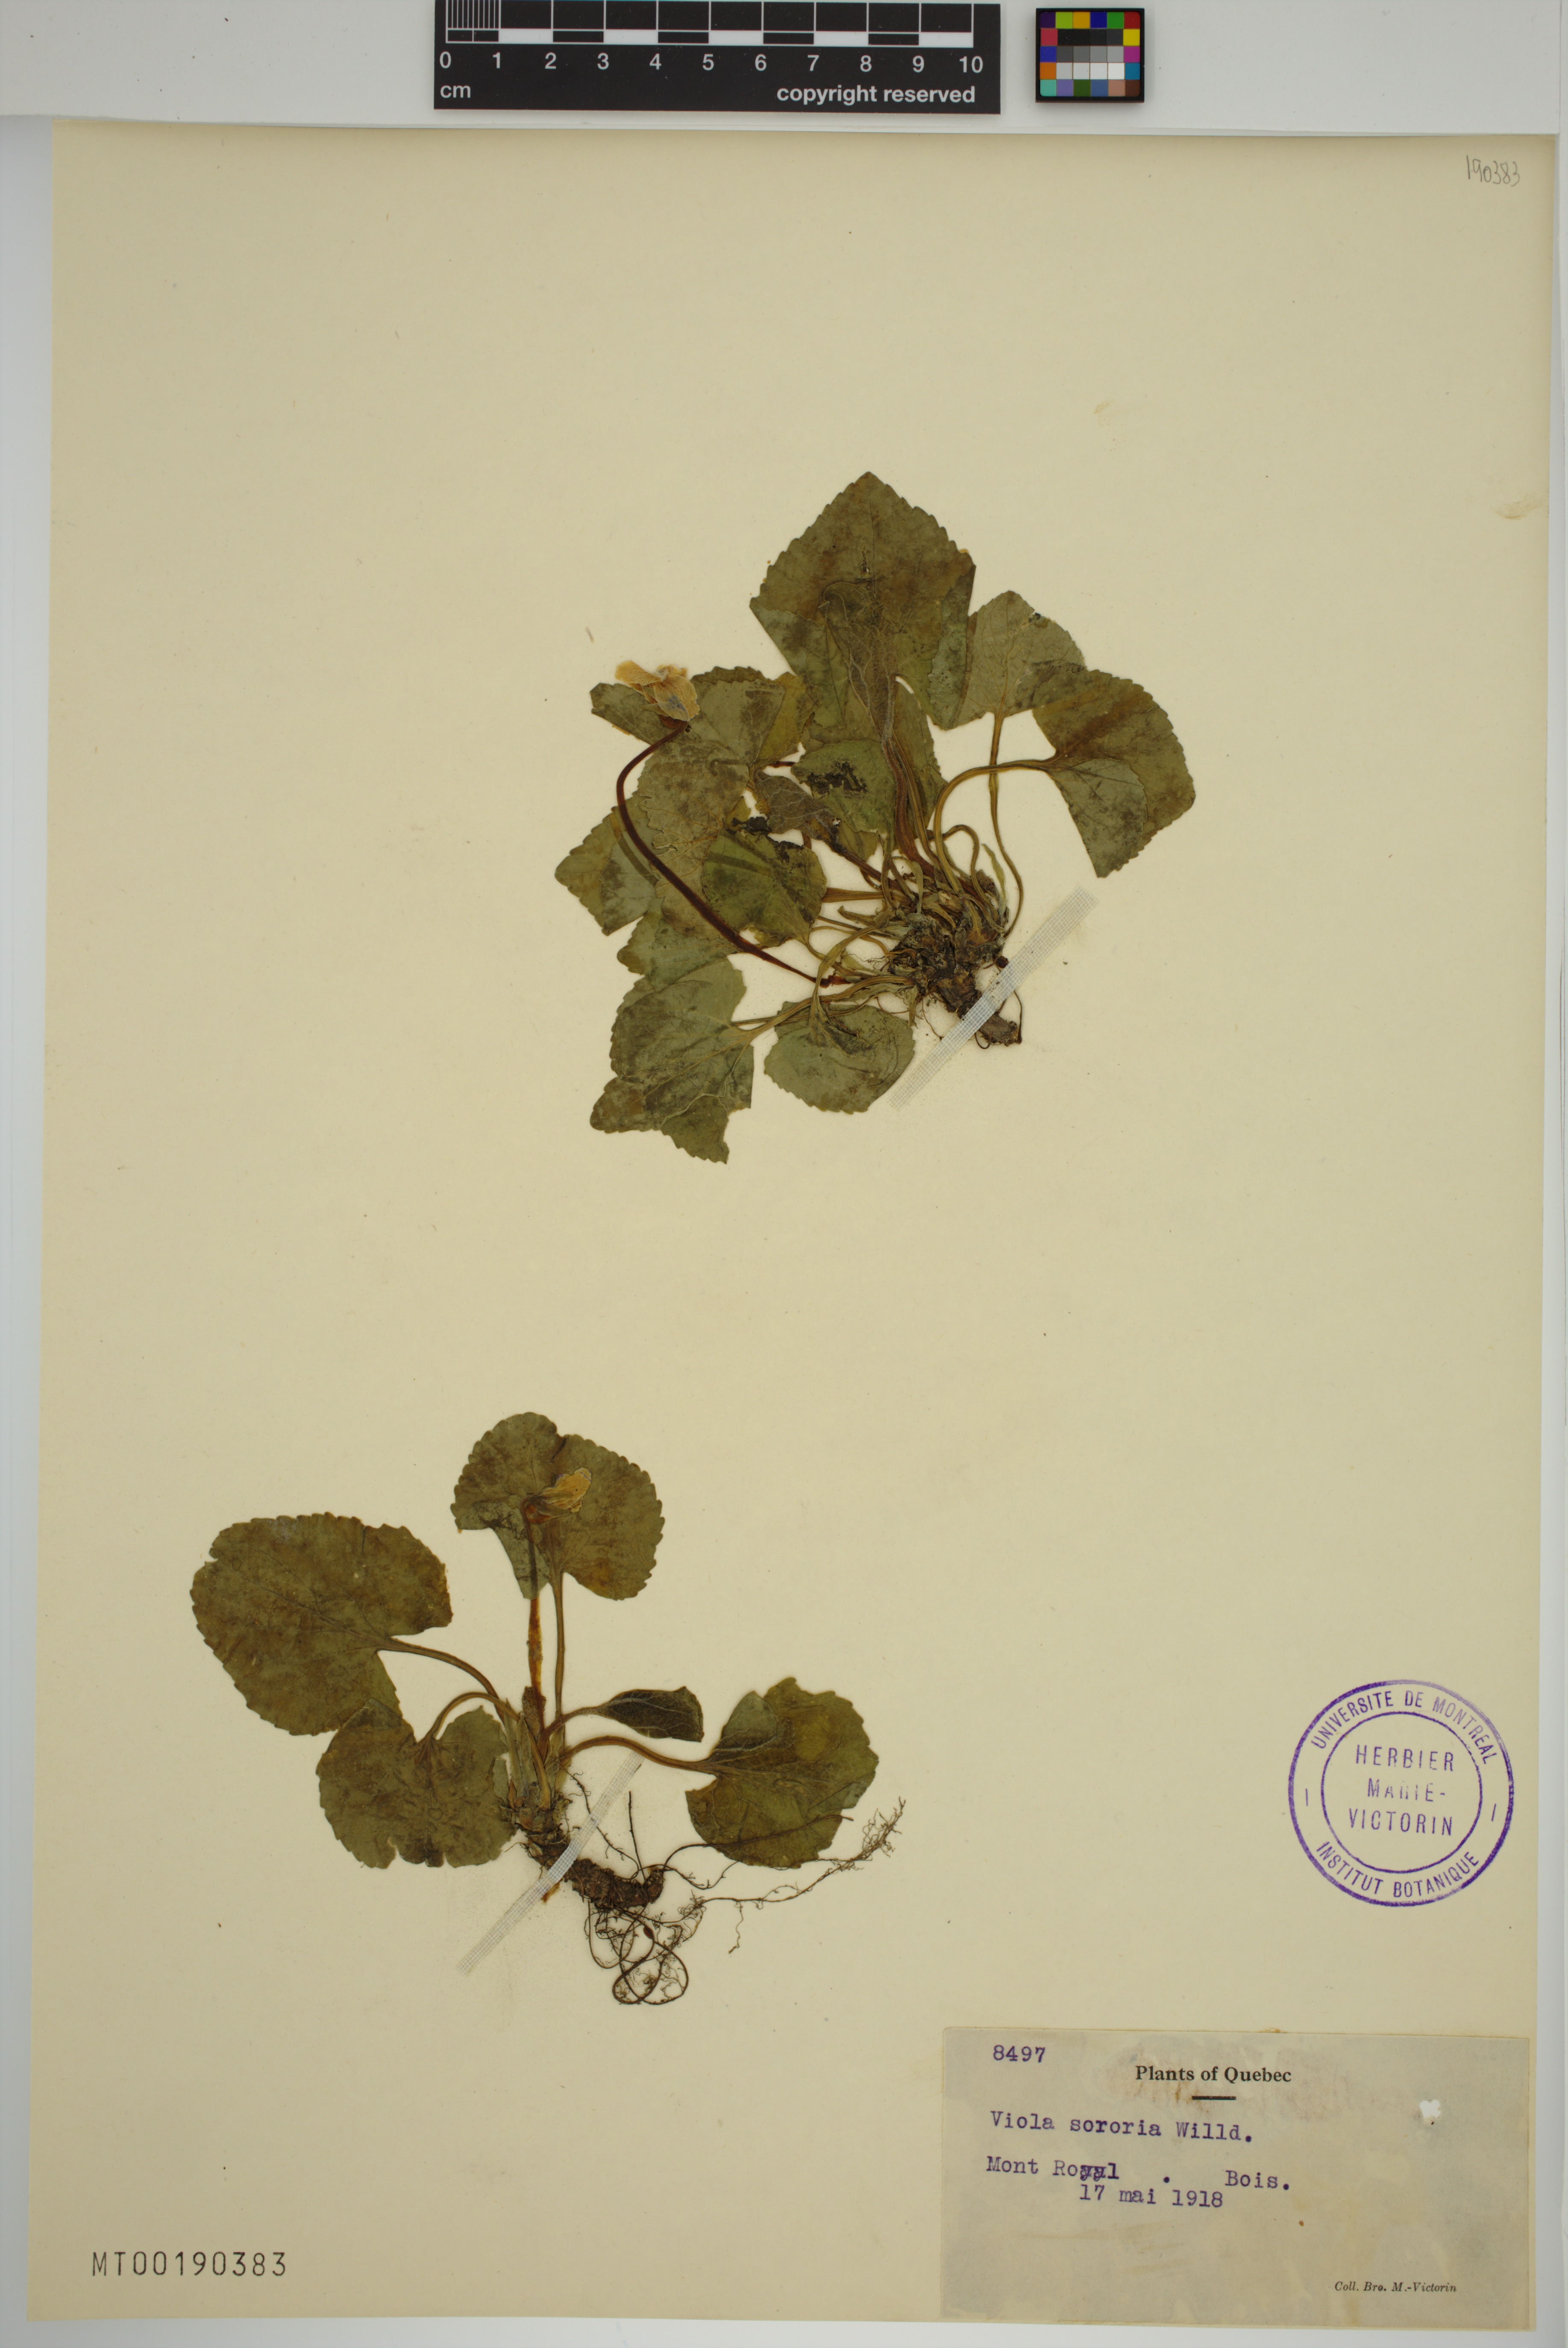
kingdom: Plantae
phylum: Tracheophyta
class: Magnoliopsida
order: Malpighiales
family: Violaceae
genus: Viola
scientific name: Viola sororia
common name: Dooryard violet
